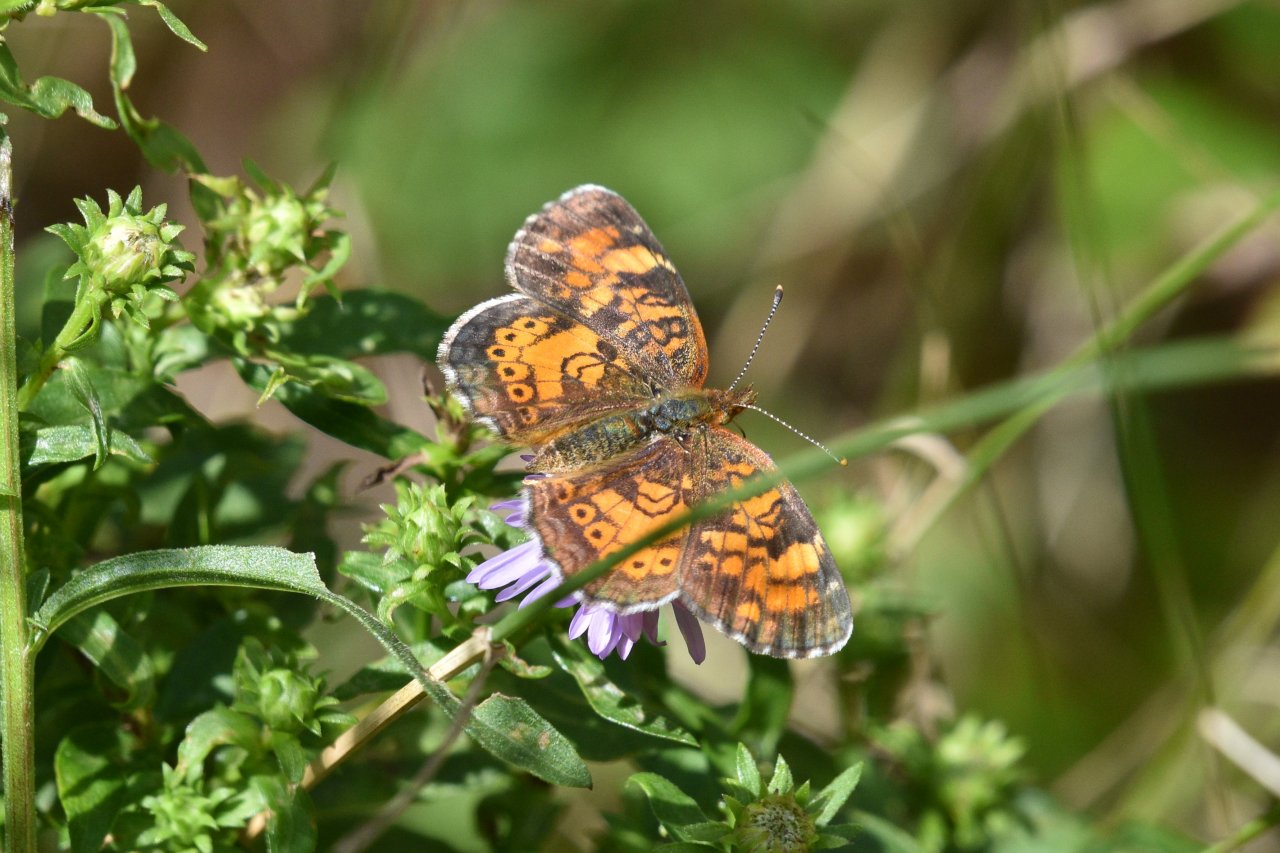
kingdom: Animalia
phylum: Arthropoda
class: Insecta
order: Lepidoptera
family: Nymphalidae
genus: Phyciodes
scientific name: Phyciodes tharos
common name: Northern Crescent
